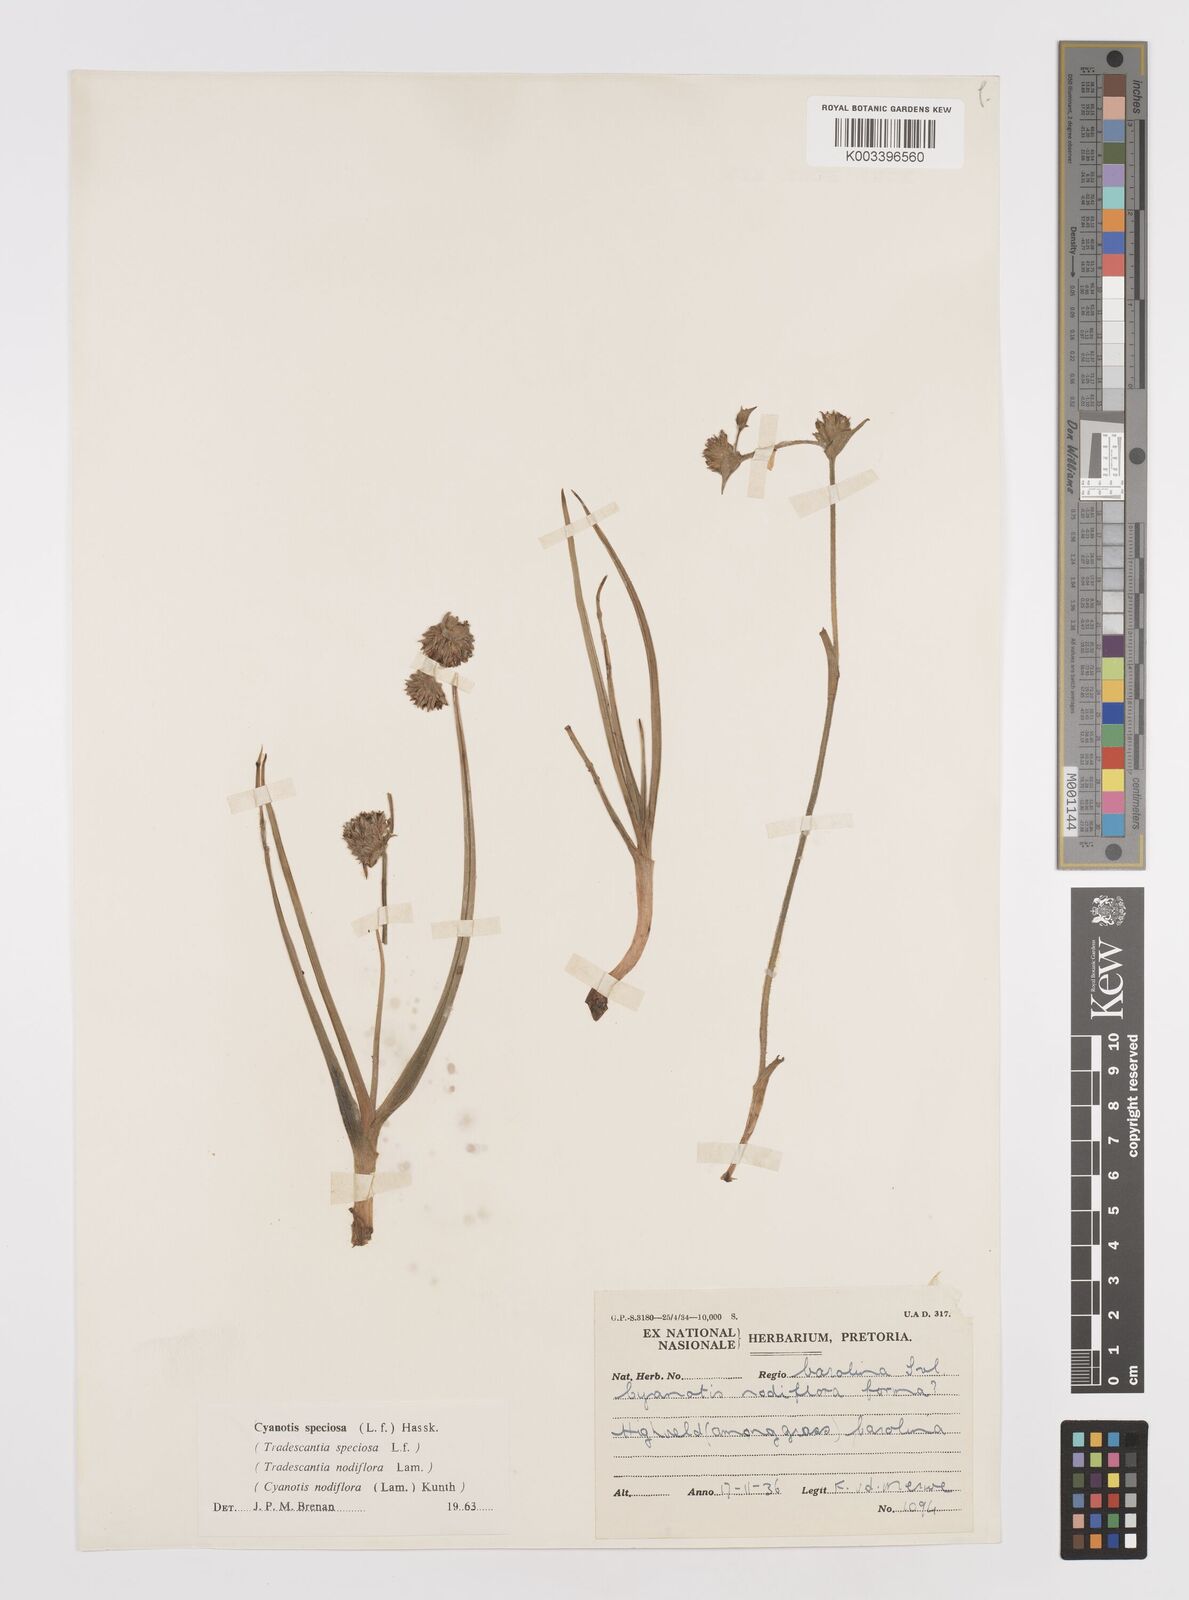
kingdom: Plantae
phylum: Tracheophyta
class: Liliopsida
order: Commelinales
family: Commelinaceae
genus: Cyanotis
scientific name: Cyanotis speciosa
